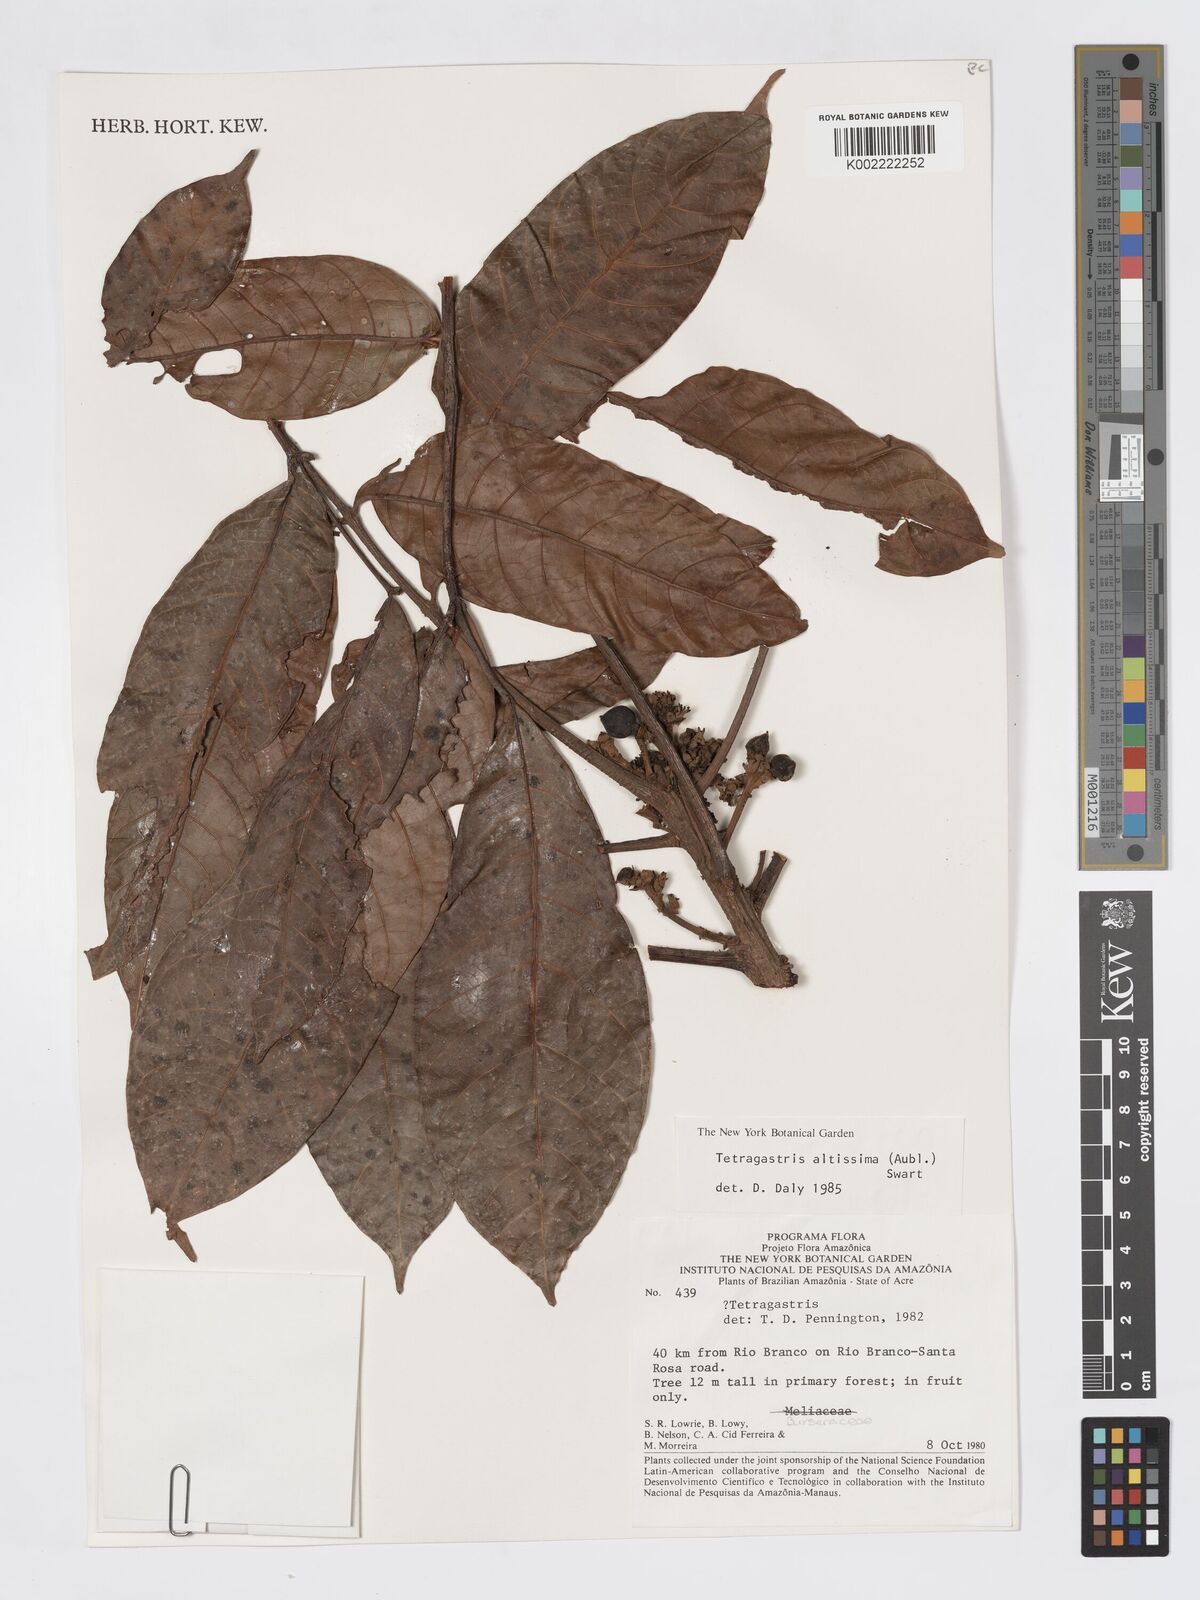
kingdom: Plantae
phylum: Tracheophyta
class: Magnoliopsida
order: Sapindales
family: Burseraceae
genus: Tetragastris
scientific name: Tetragastris altissima
